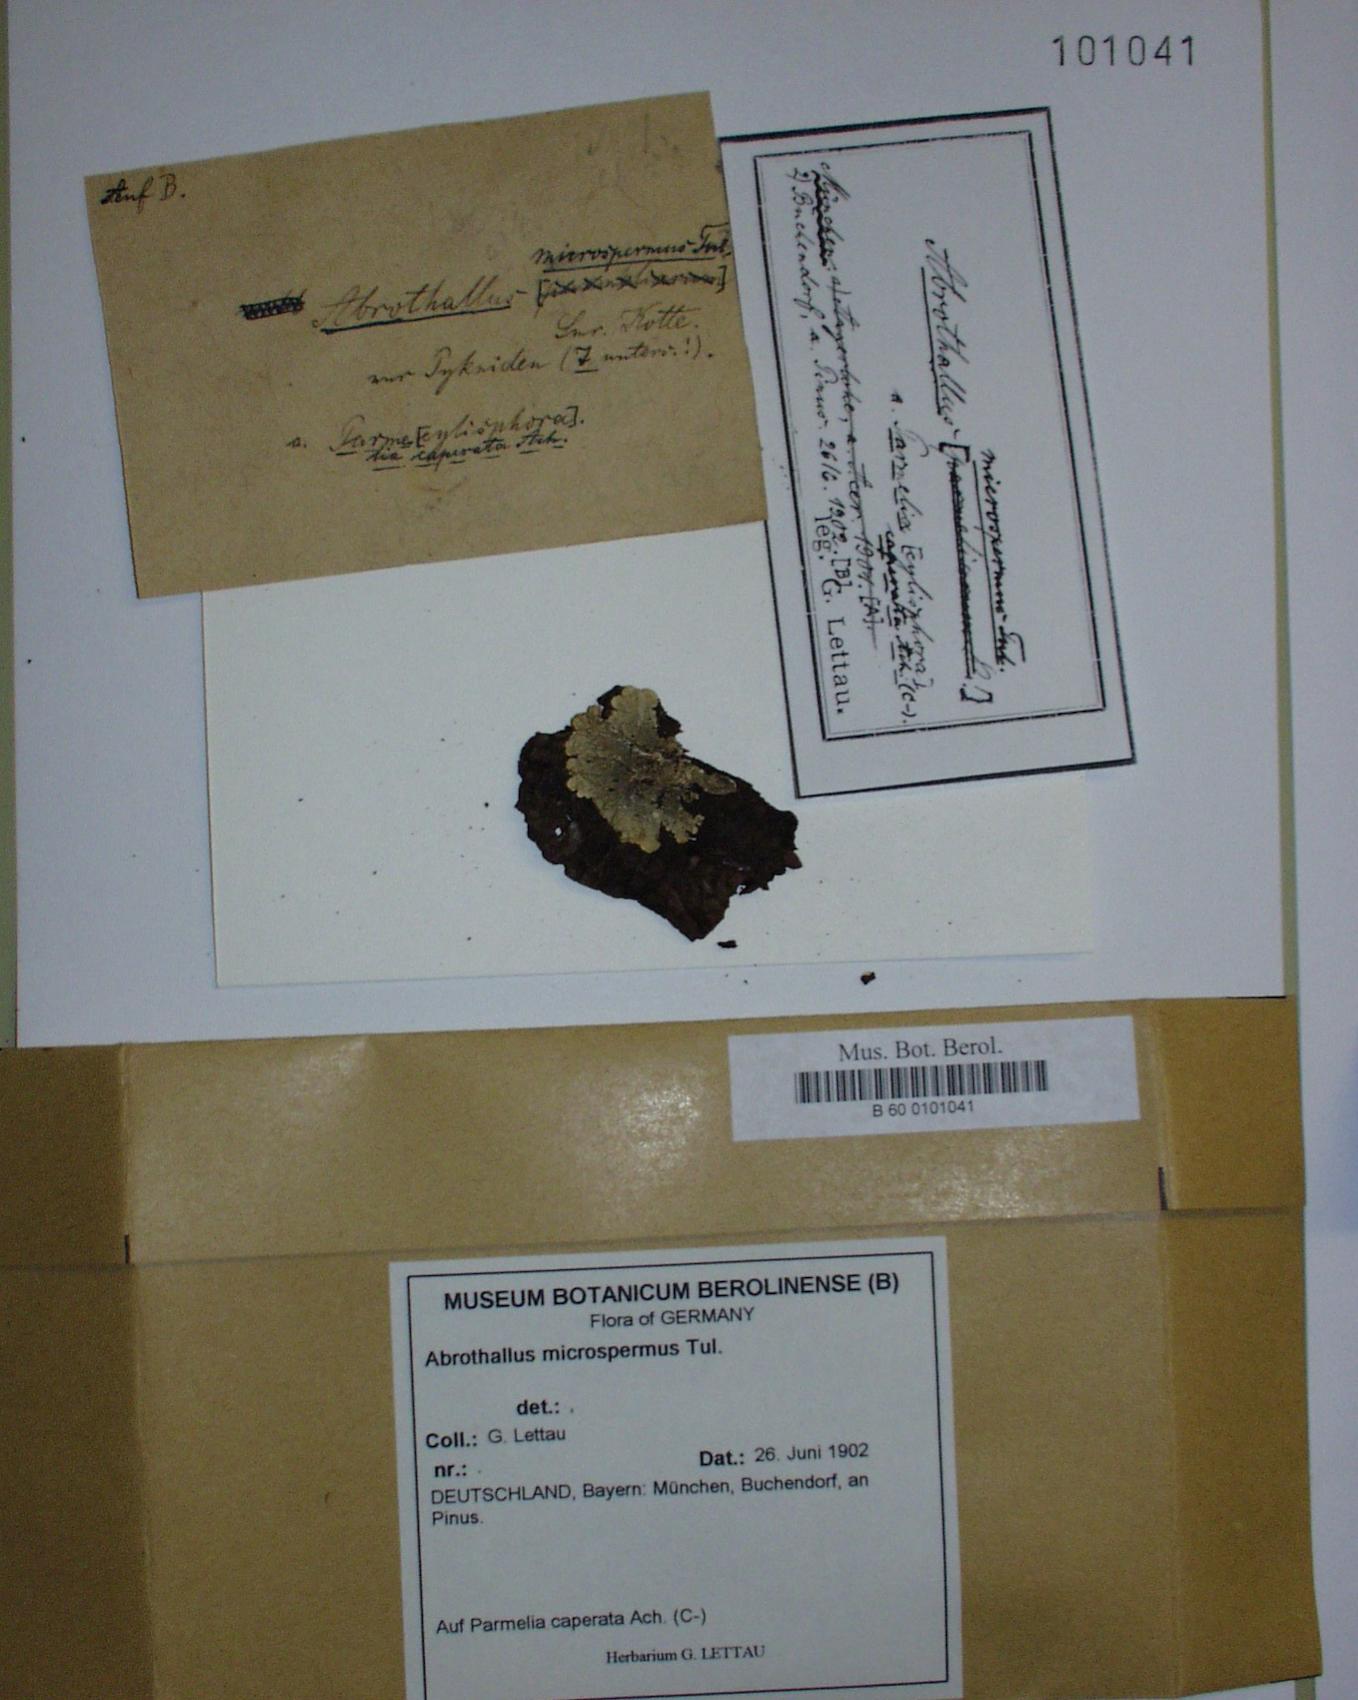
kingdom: Fungi
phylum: Ascomycota
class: Dothideomycetes
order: Abrothallales
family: Abrothallaceae
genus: Abrothallus
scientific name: Abrothallus microspermus
